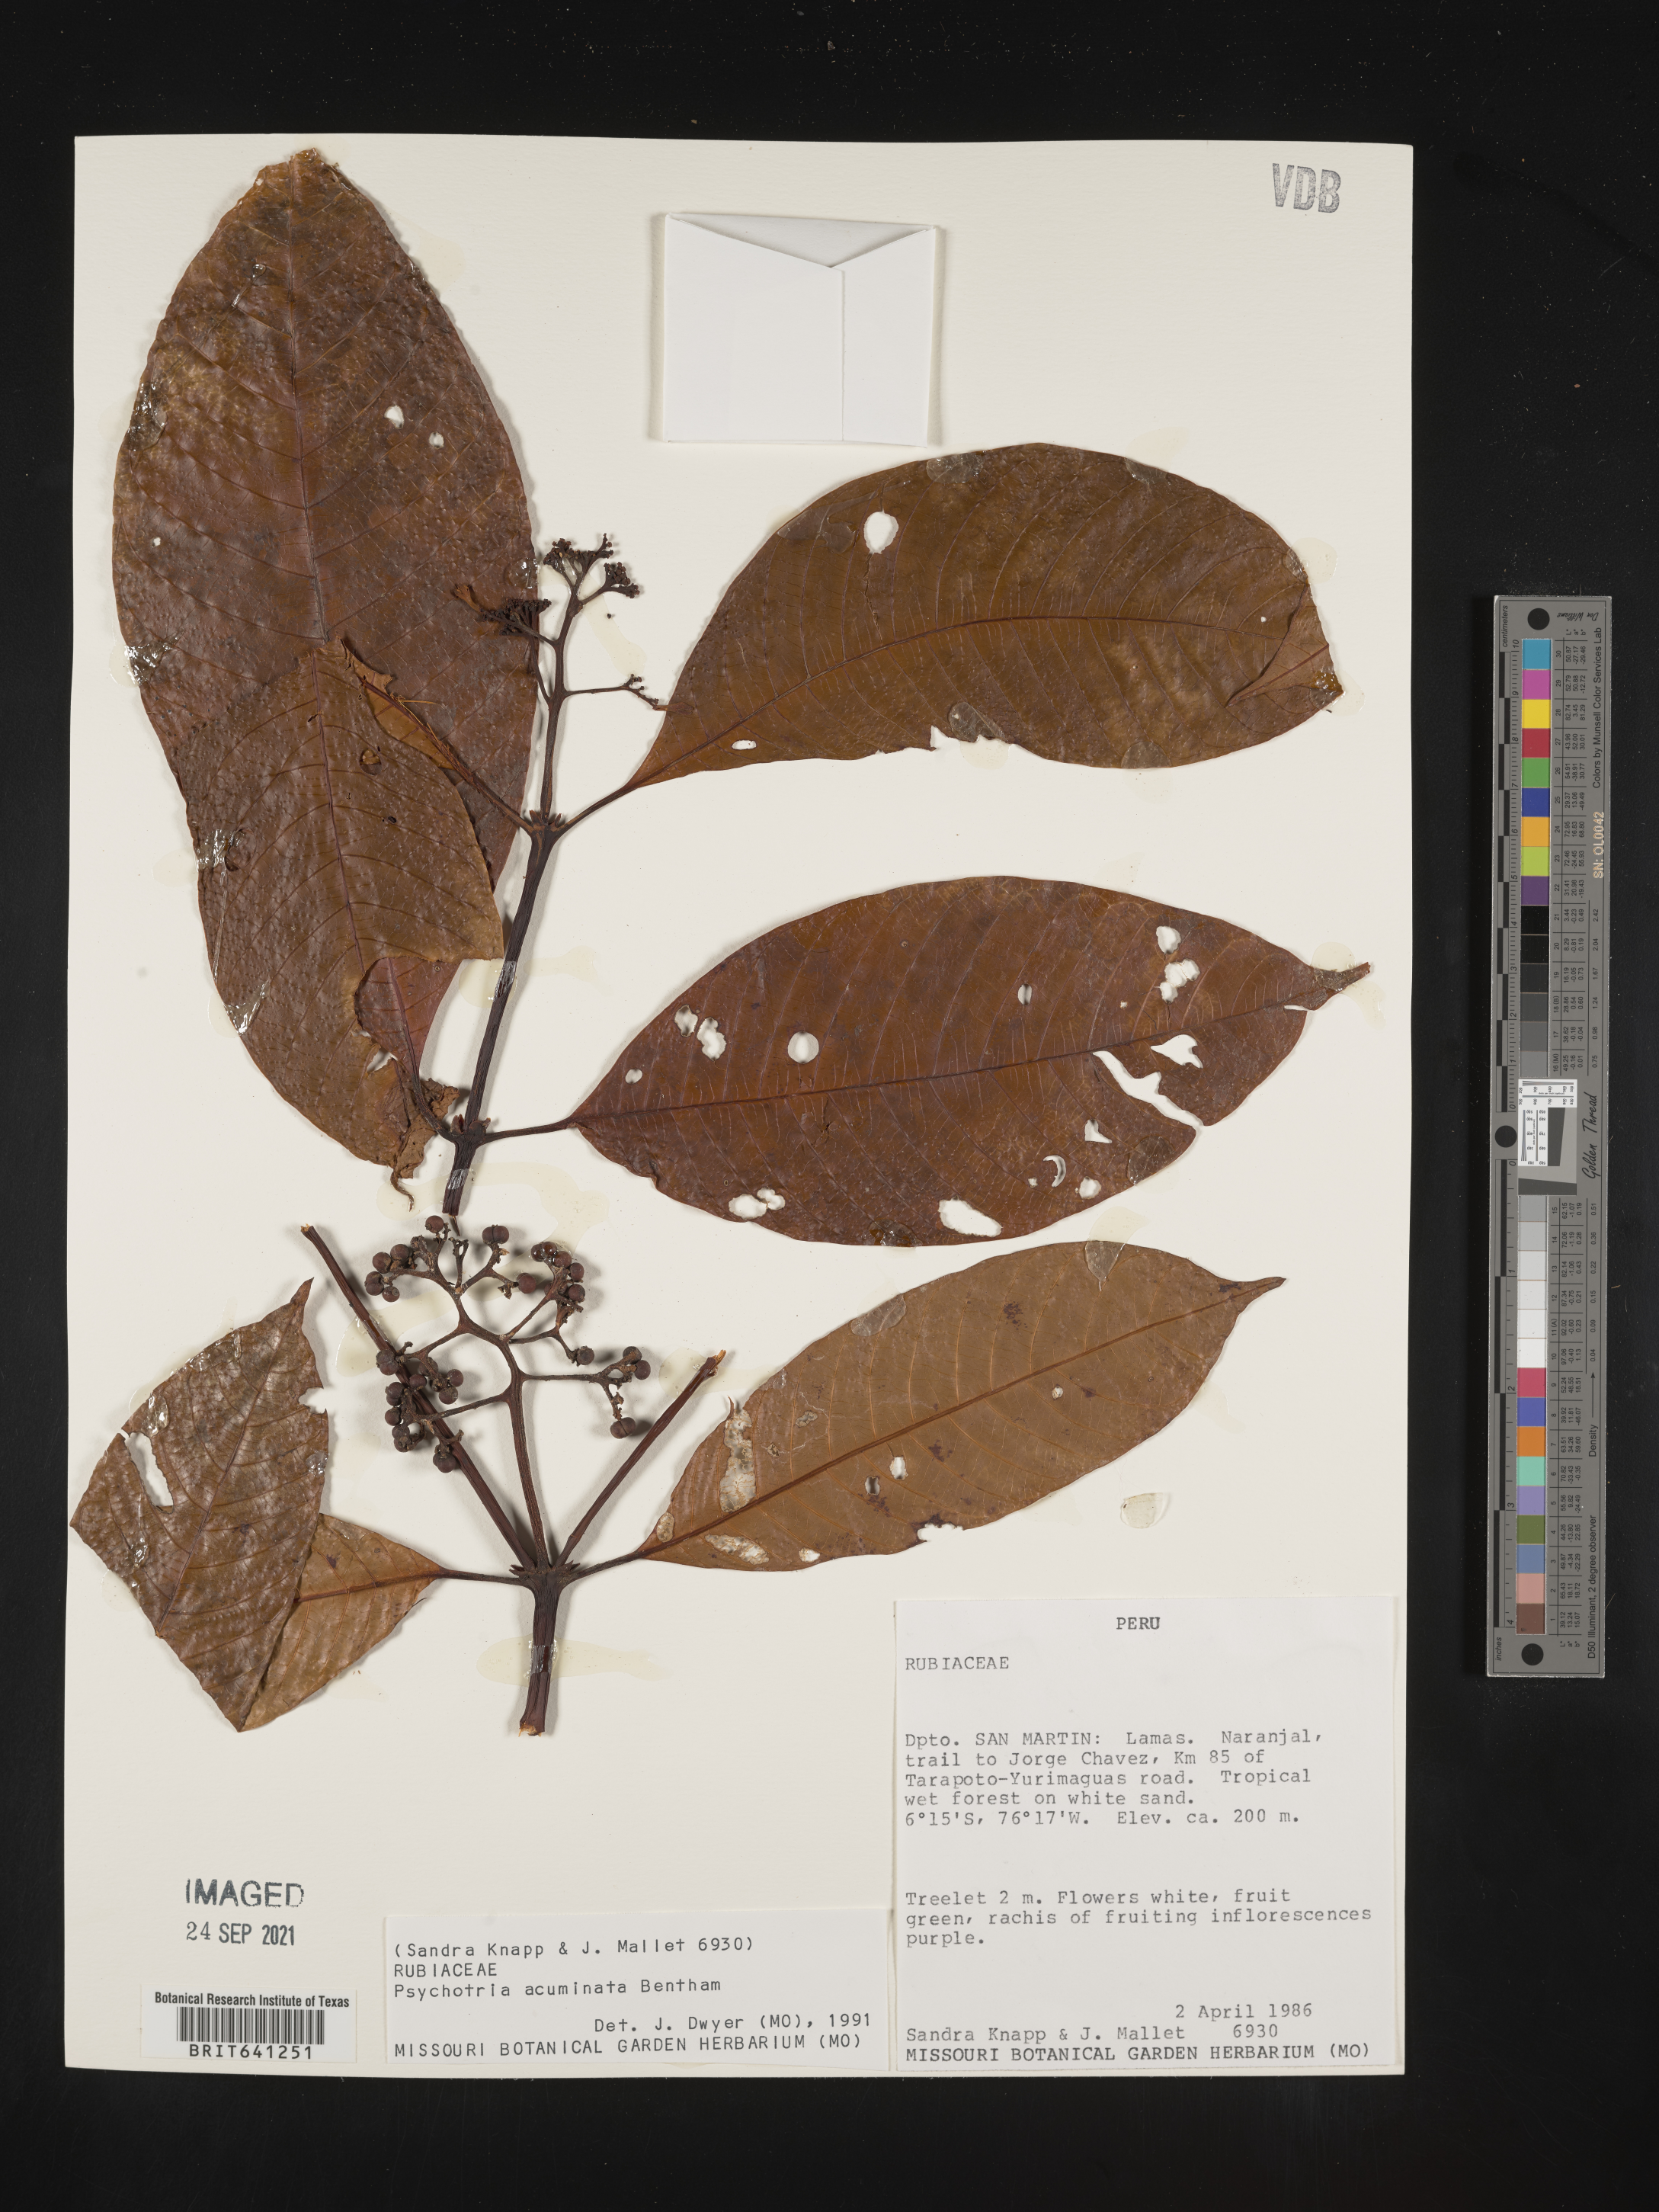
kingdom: Plantae
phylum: Tracheophyta
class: Magnoliopsida
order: Gentianales
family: Rubiaceae
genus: Psychotria
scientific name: Psychotria
